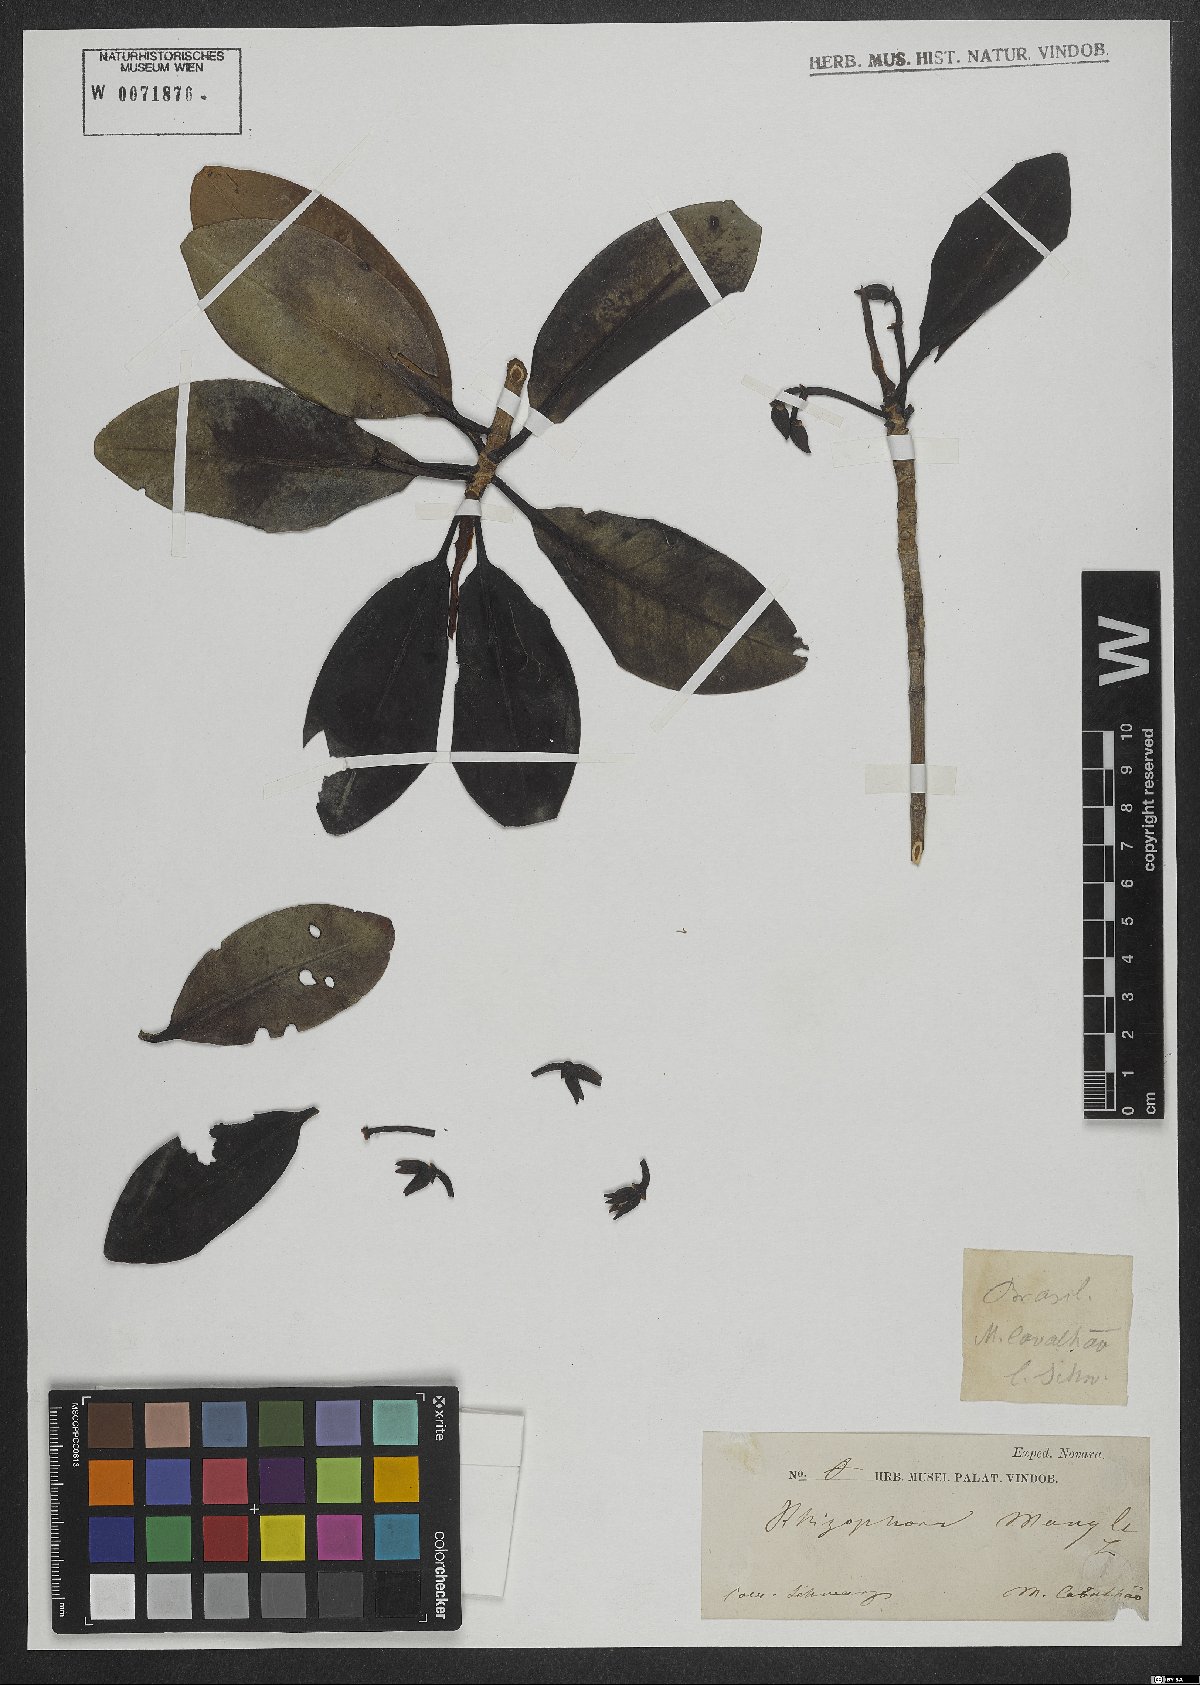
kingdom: Plantae
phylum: Tracheophyta
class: Magnoliopsida
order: Malpighiales
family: Rhizophoraceae
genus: Rhizophora
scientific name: Rhizophora mangle
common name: Red mangrove
